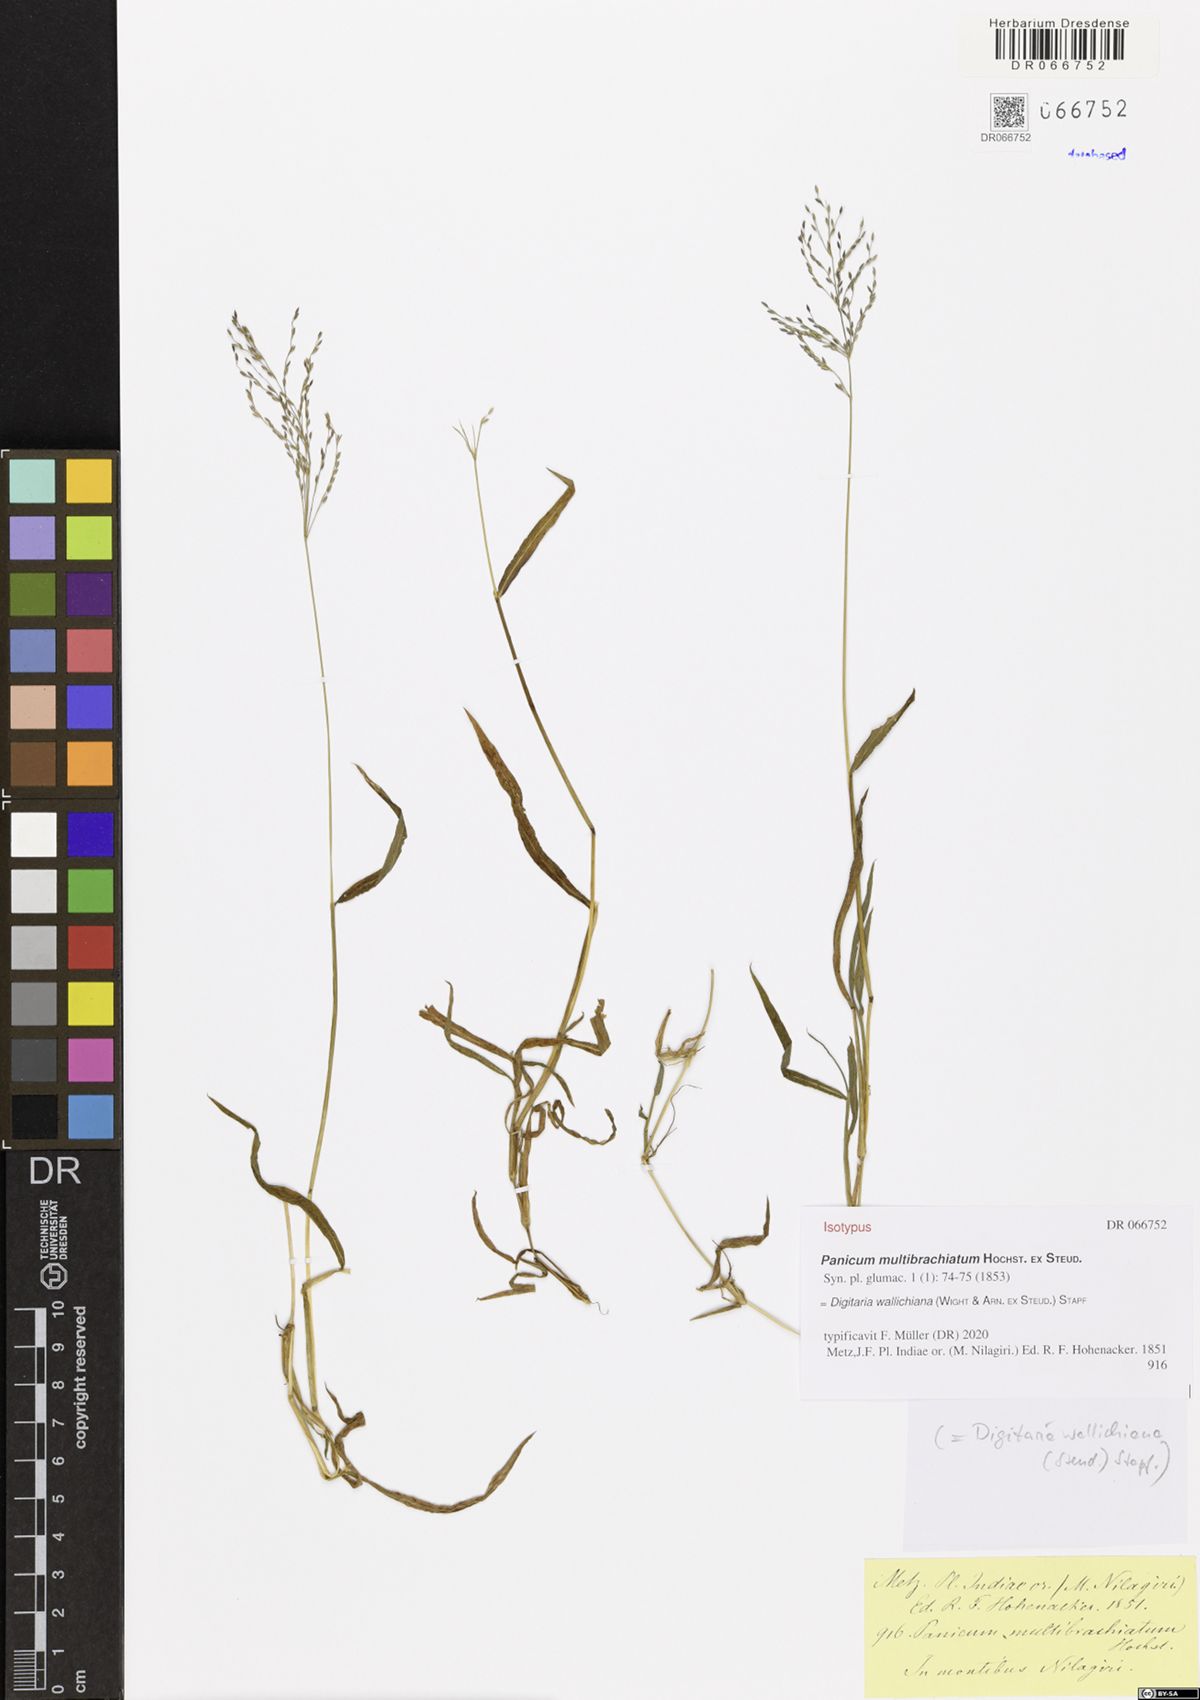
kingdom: Plantae
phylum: Tracheophyta
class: Liliopsida
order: Poales
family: Poaceae
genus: Digitaria
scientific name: Digitaria wallichiana
